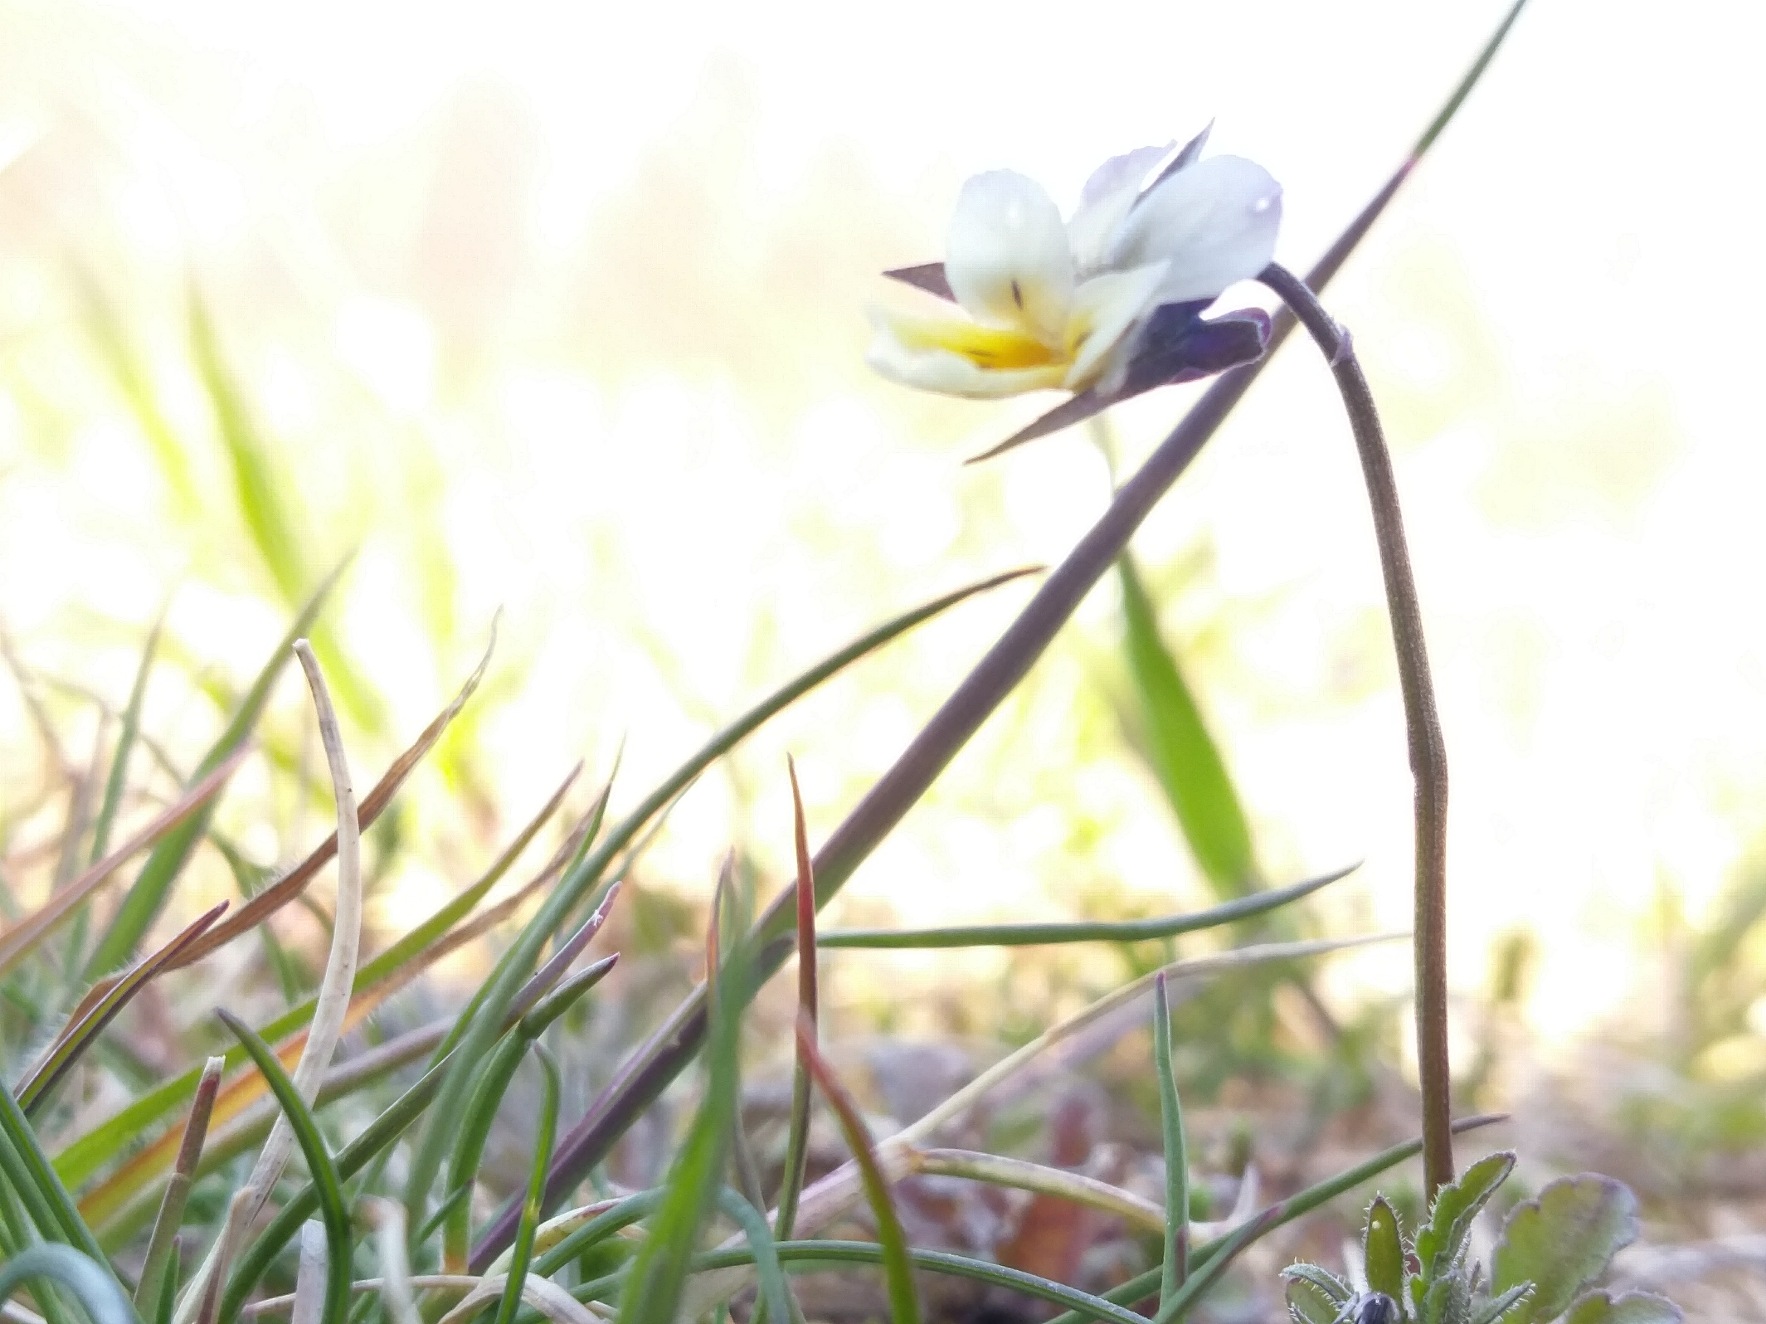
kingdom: Plantae
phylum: Tracheophyta
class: Magnoliopsida
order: Malpighiales
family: Violaceae
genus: Viola
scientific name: Viola arvensis
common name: Ager-stedmoderblomst
